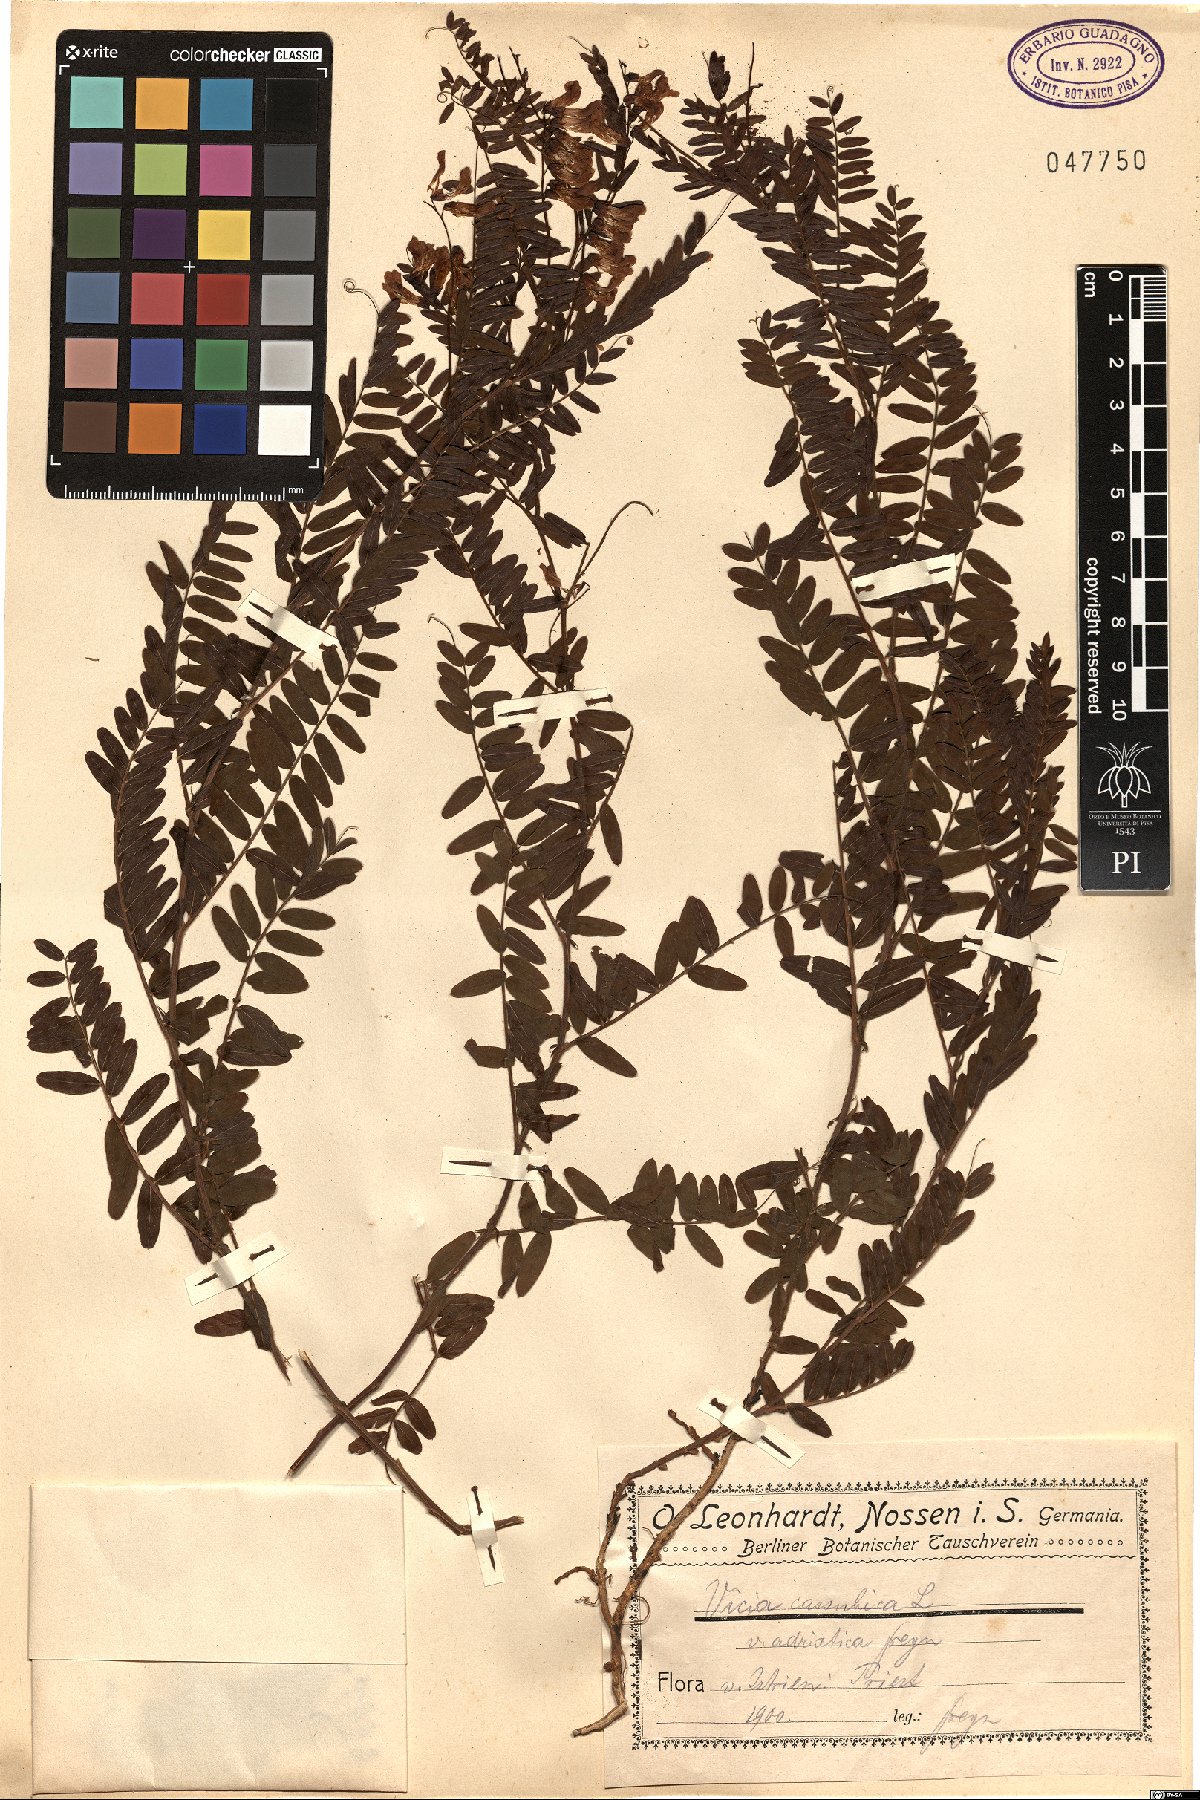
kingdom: Plantae
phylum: Tracheophyta
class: Magnoliopsida
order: Fabales
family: Fabaceae
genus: Vicia
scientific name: Vicia cassubica
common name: Danzig vetch
